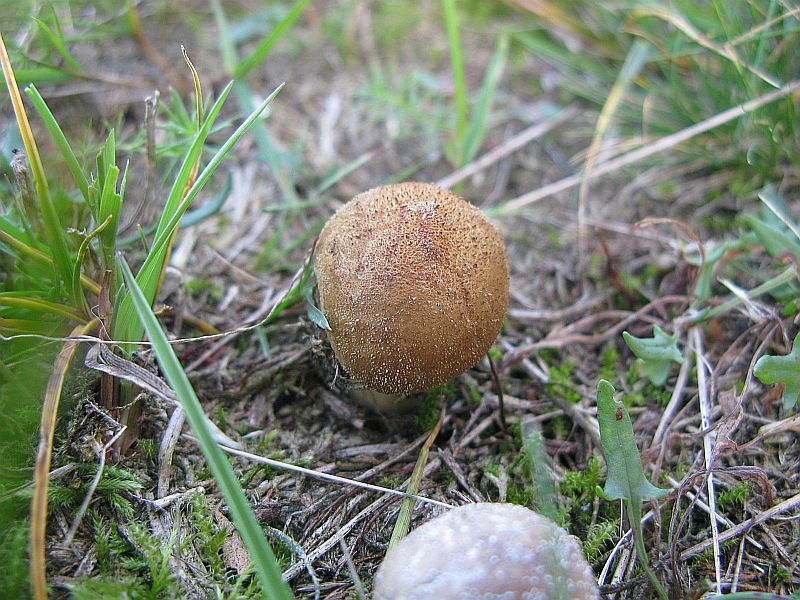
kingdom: Fungi
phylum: Basidiomycota
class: Agaricomycetes
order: Agaricales
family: Lycoperdaceae
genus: Lycoperdon
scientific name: Lycoperdon lividum
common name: mark-støvbold
